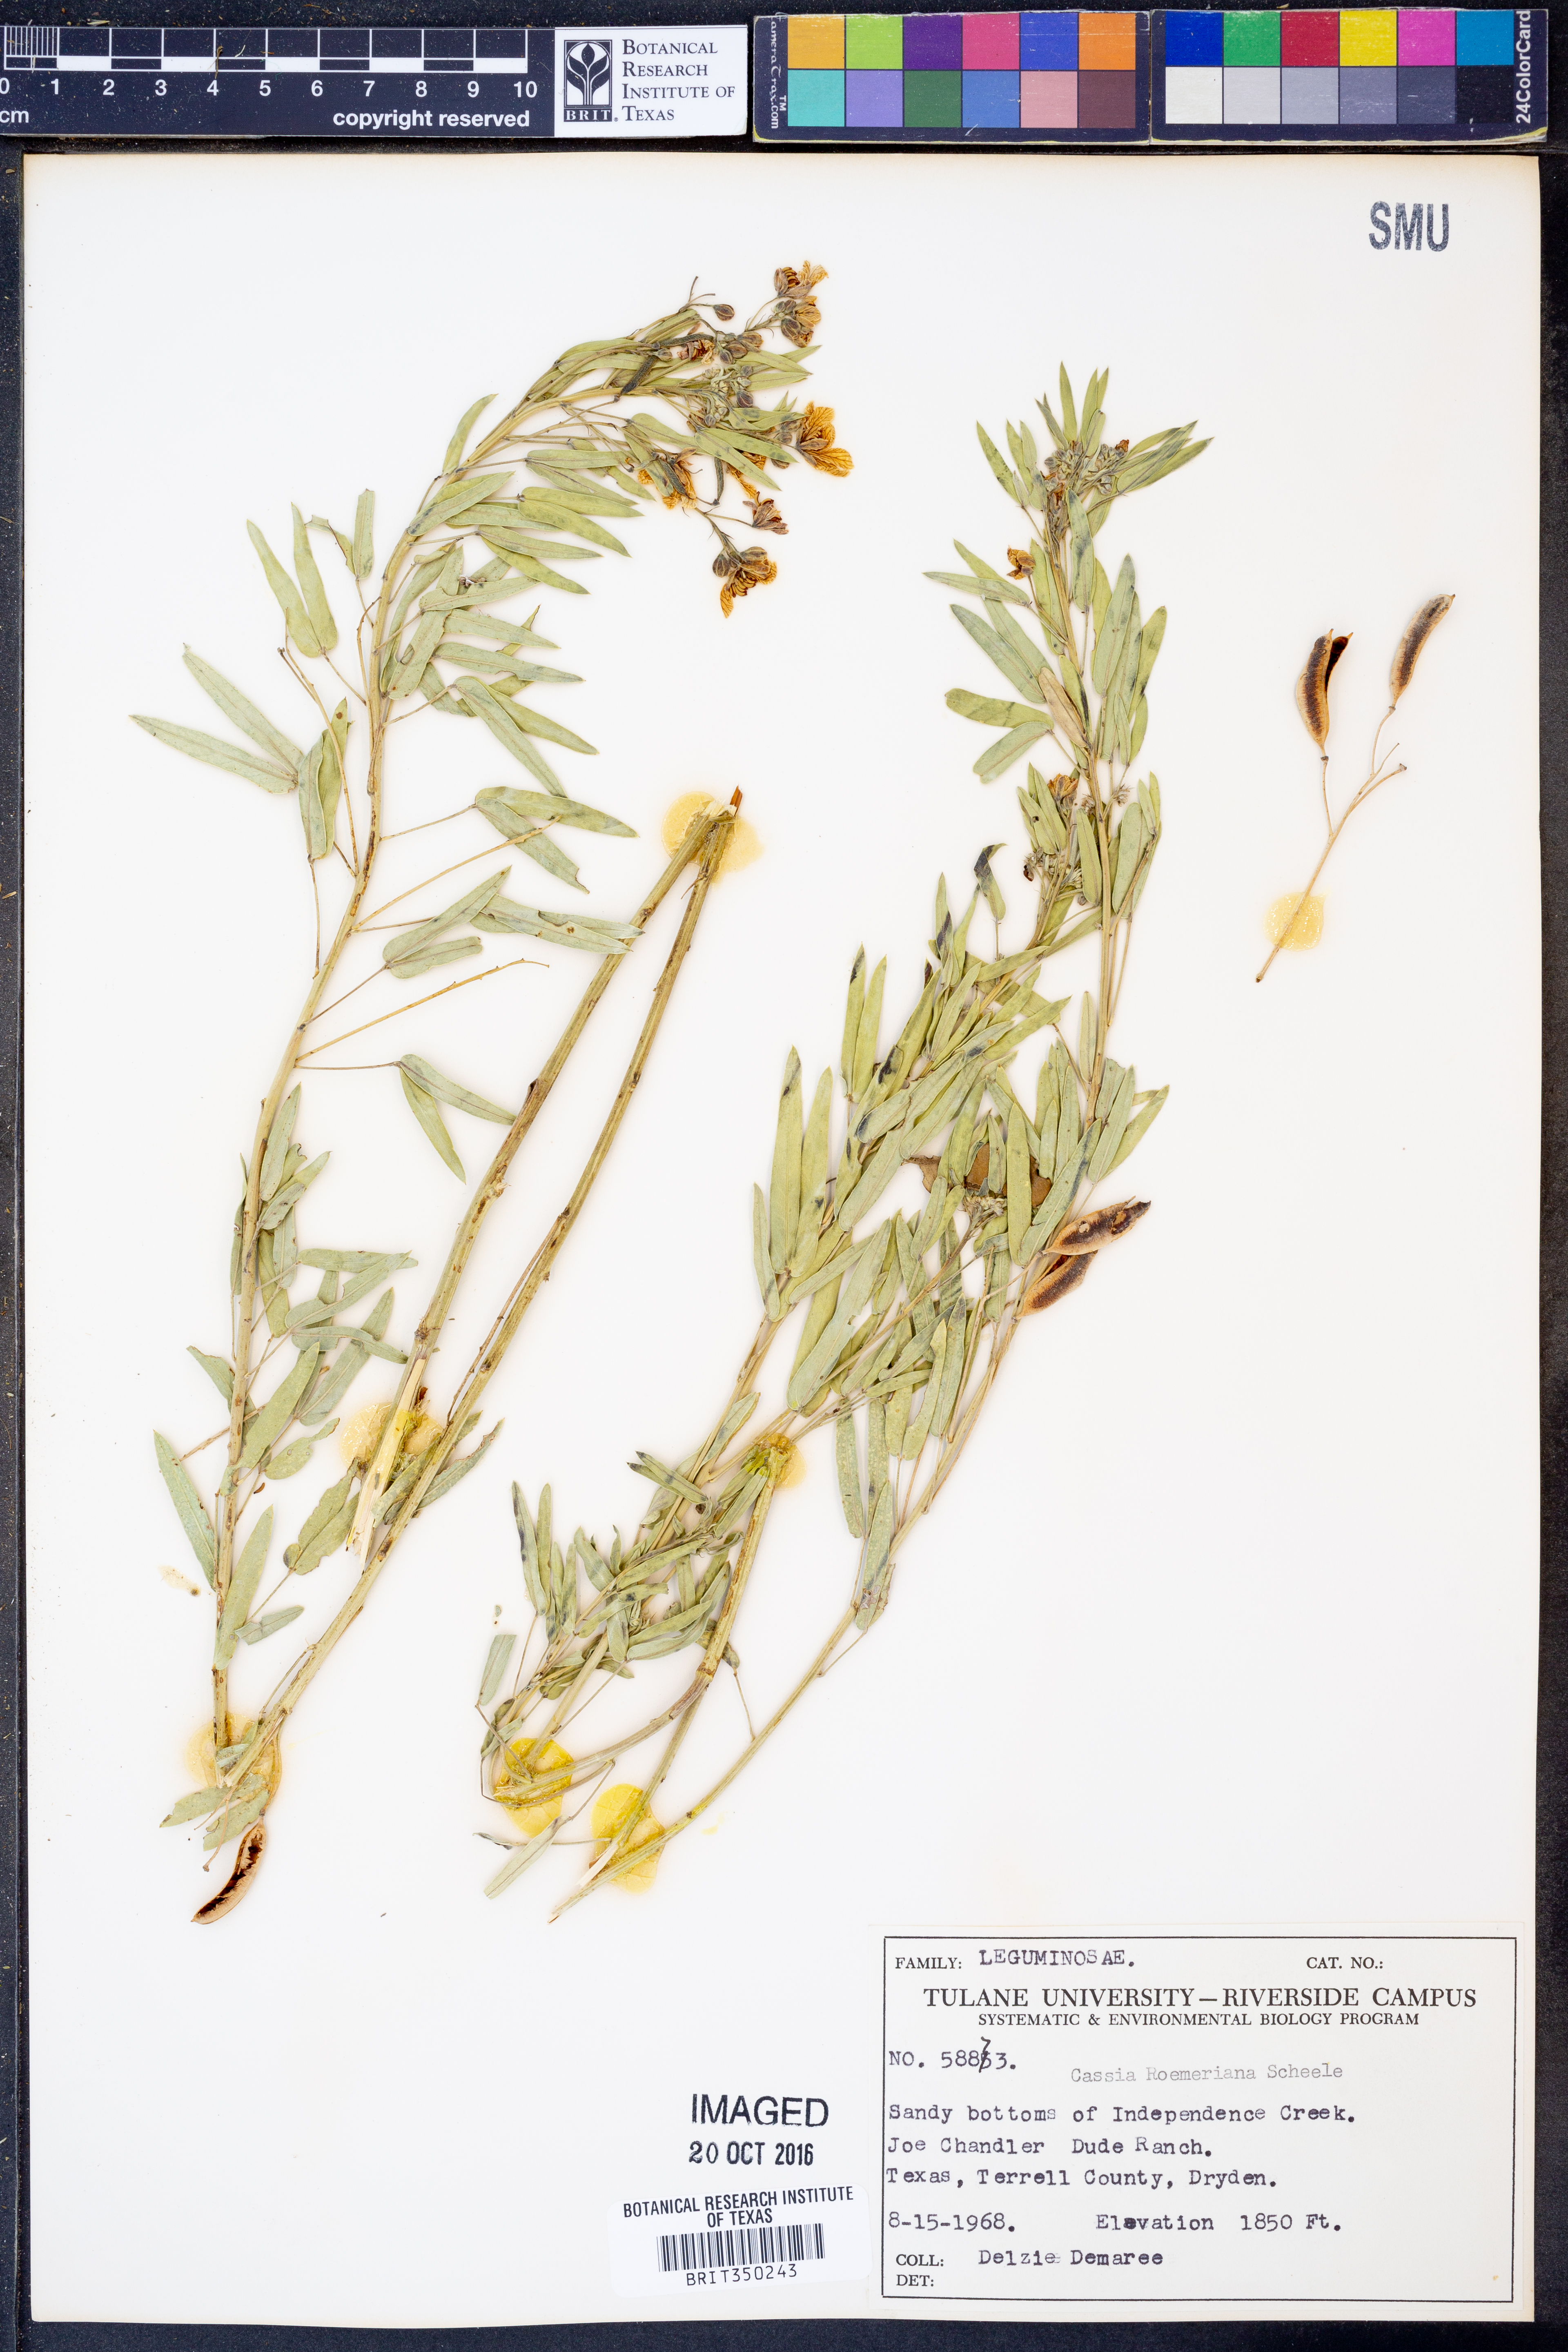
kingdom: Plantae
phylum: Tracheophyta
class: Magnoliopsida
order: Fabales
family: Fabaceae
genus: Senna
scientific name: Senna roemeriana
